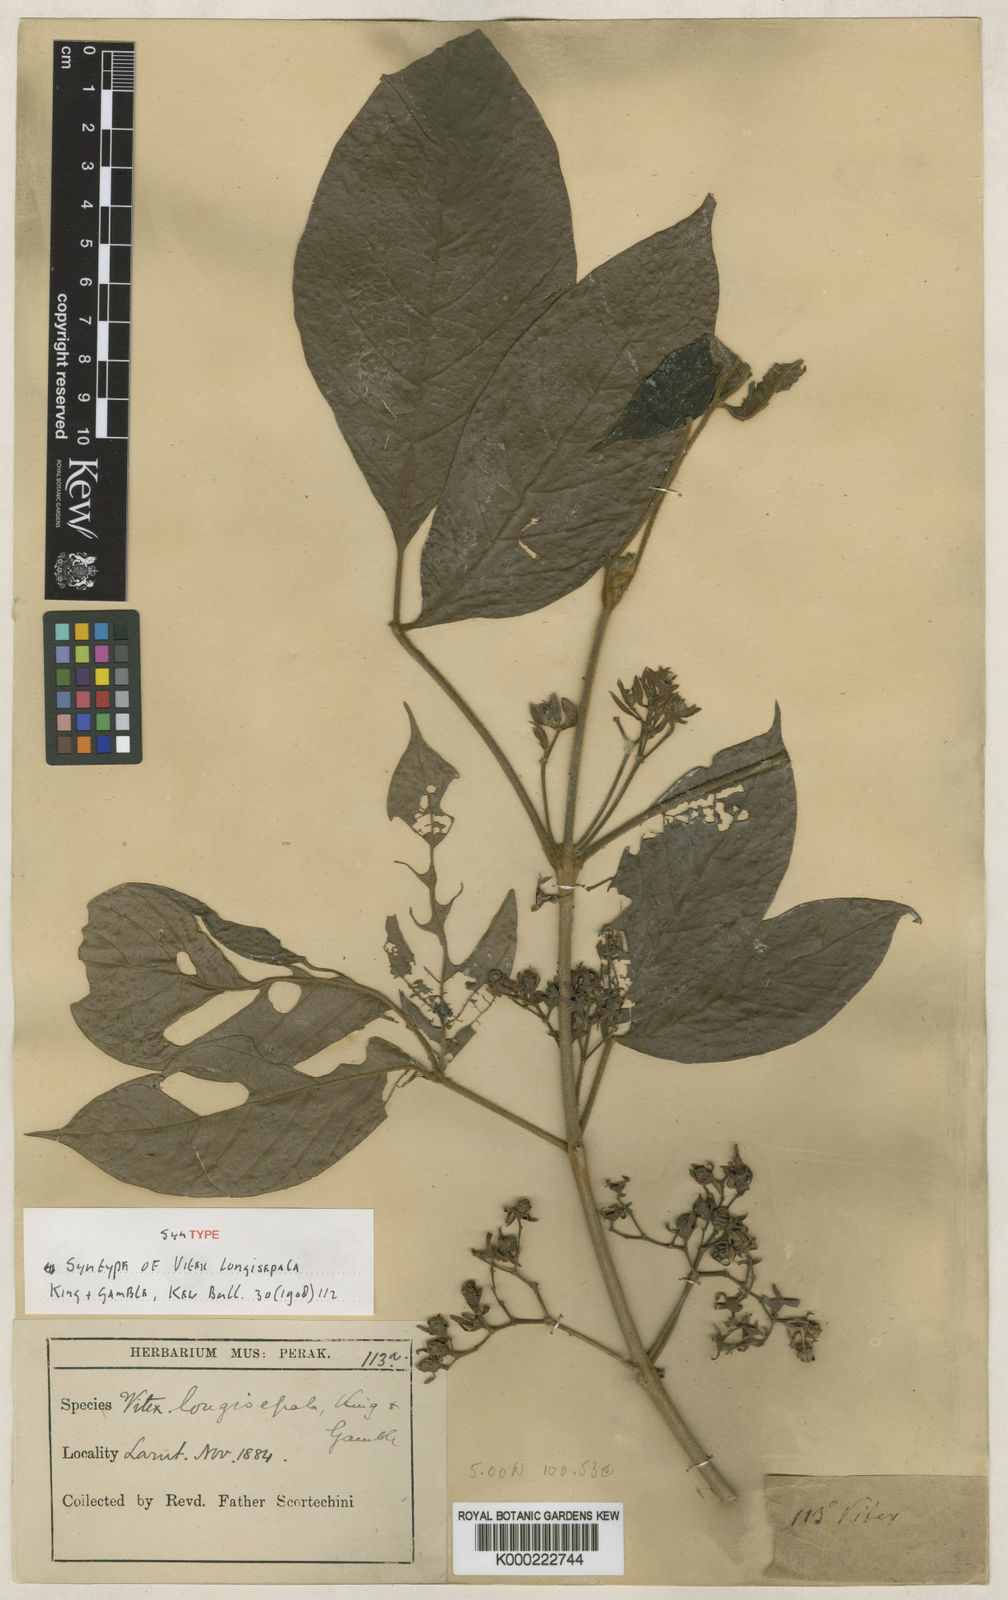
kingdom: Plantae
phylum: Tracheophyta
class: Magnoliopsida
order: Lamiales
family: Lamiaceae
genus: Vitex
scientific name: Vitex longisepala
